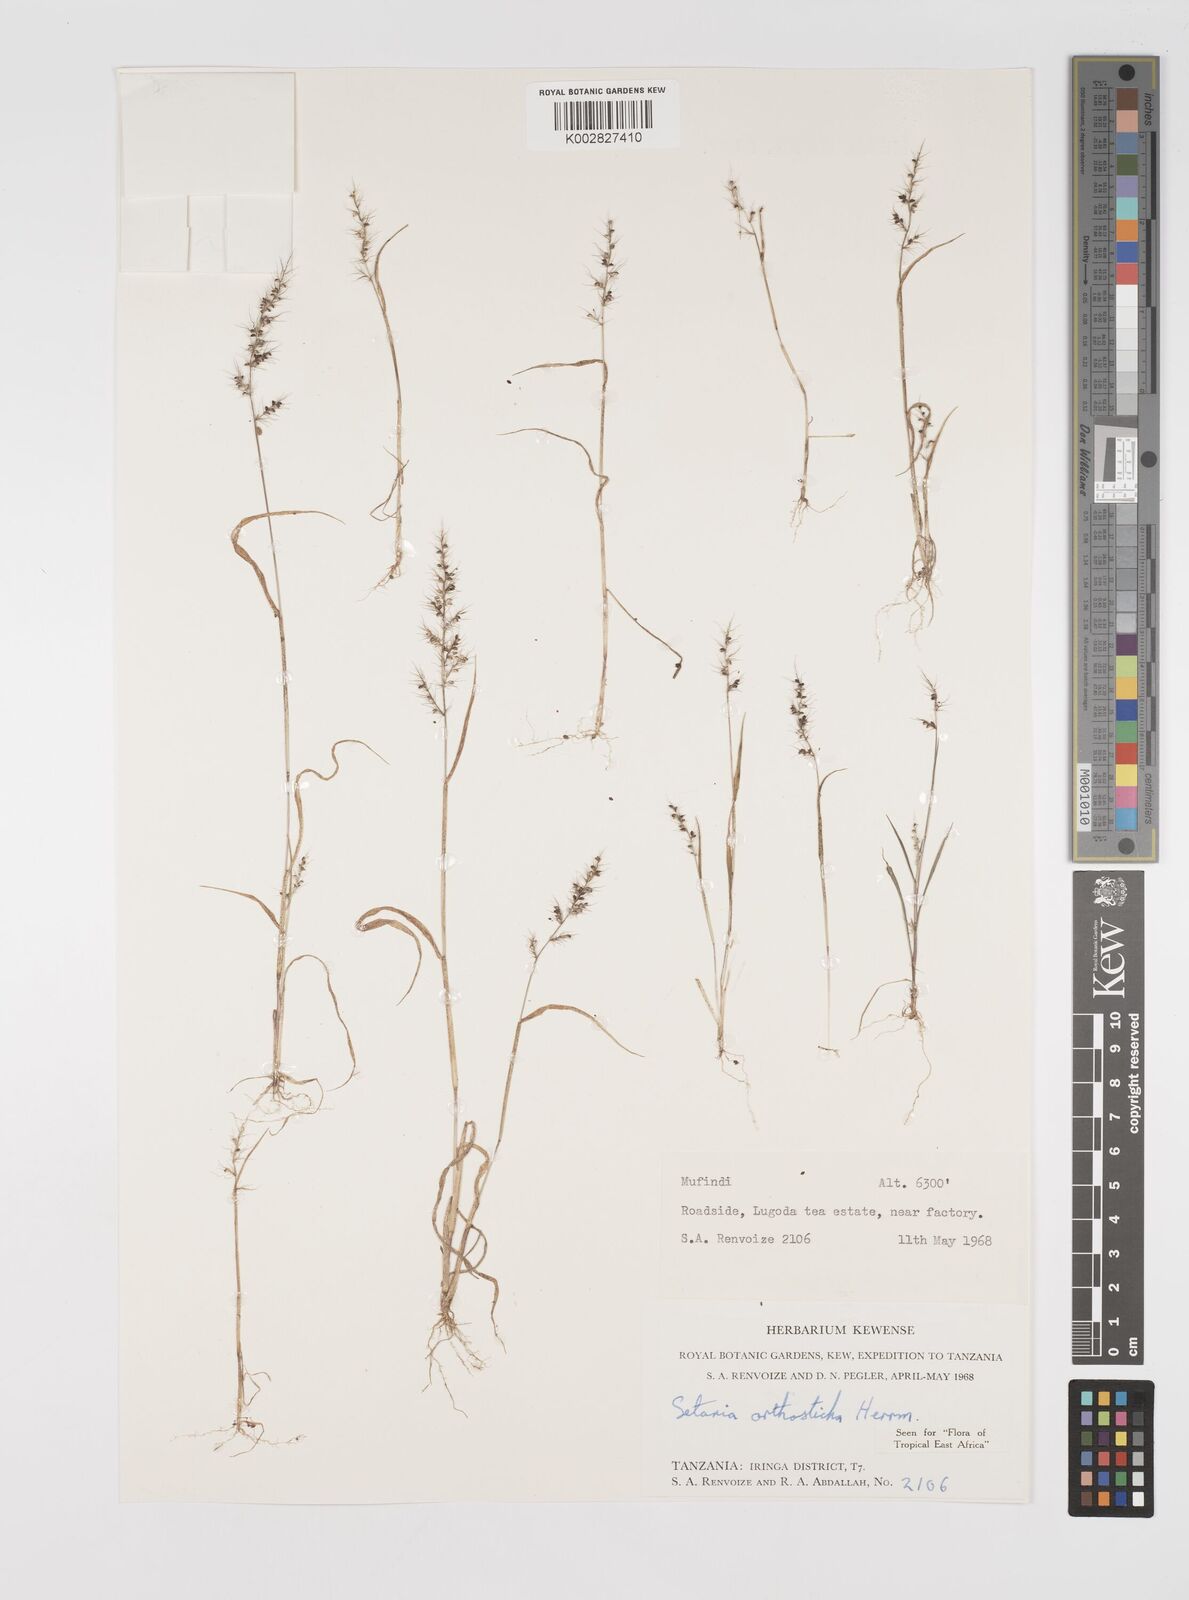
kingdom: Plantae
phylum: Tracheophyta
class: Liliopsida
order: Poales
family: Poaceae
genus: Setaria
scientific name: Setaria orthosticha
